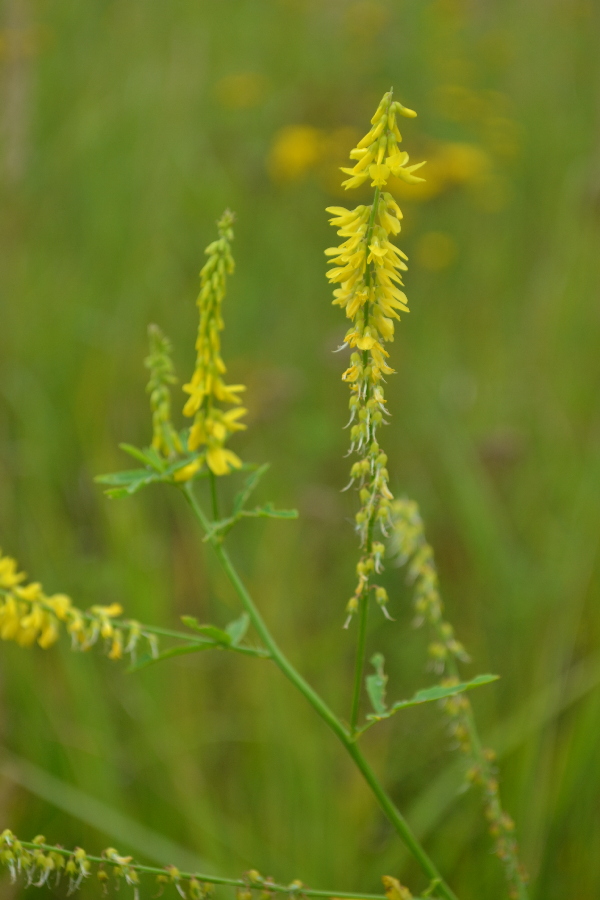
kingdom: Plantae
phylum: Tracheophyta
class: Magnoliopsida
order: Fabales
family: Fabaceae
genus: Melilotus
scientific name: Melilotus officinalis
